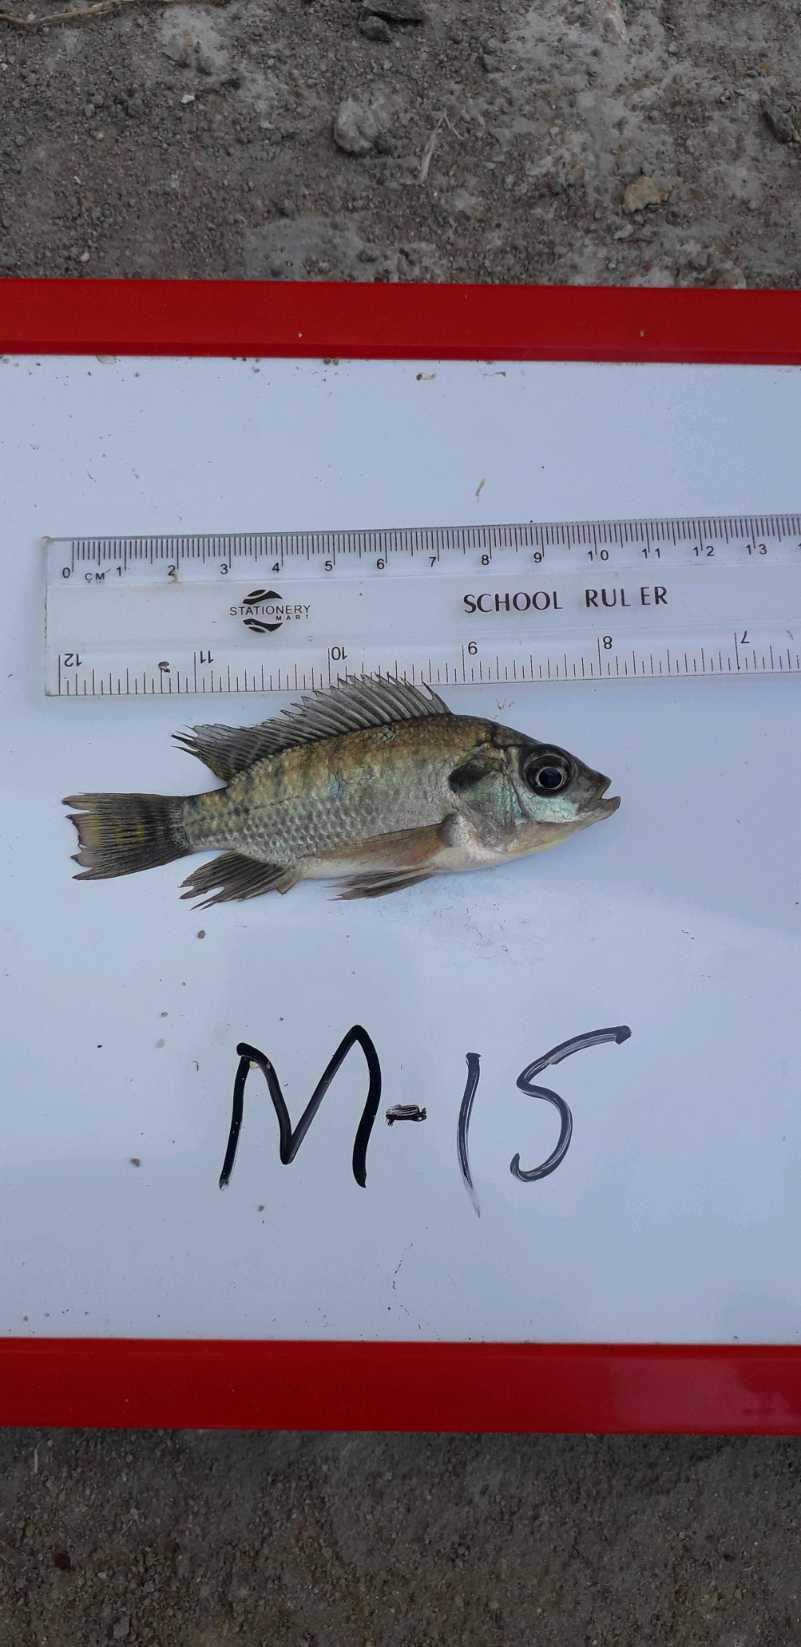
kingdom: Animalia
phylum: Chordata
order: Perciformes
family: Cichlidae
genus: Oreochromis
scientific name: Oreochromis niloticus
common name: Nile tilapia
